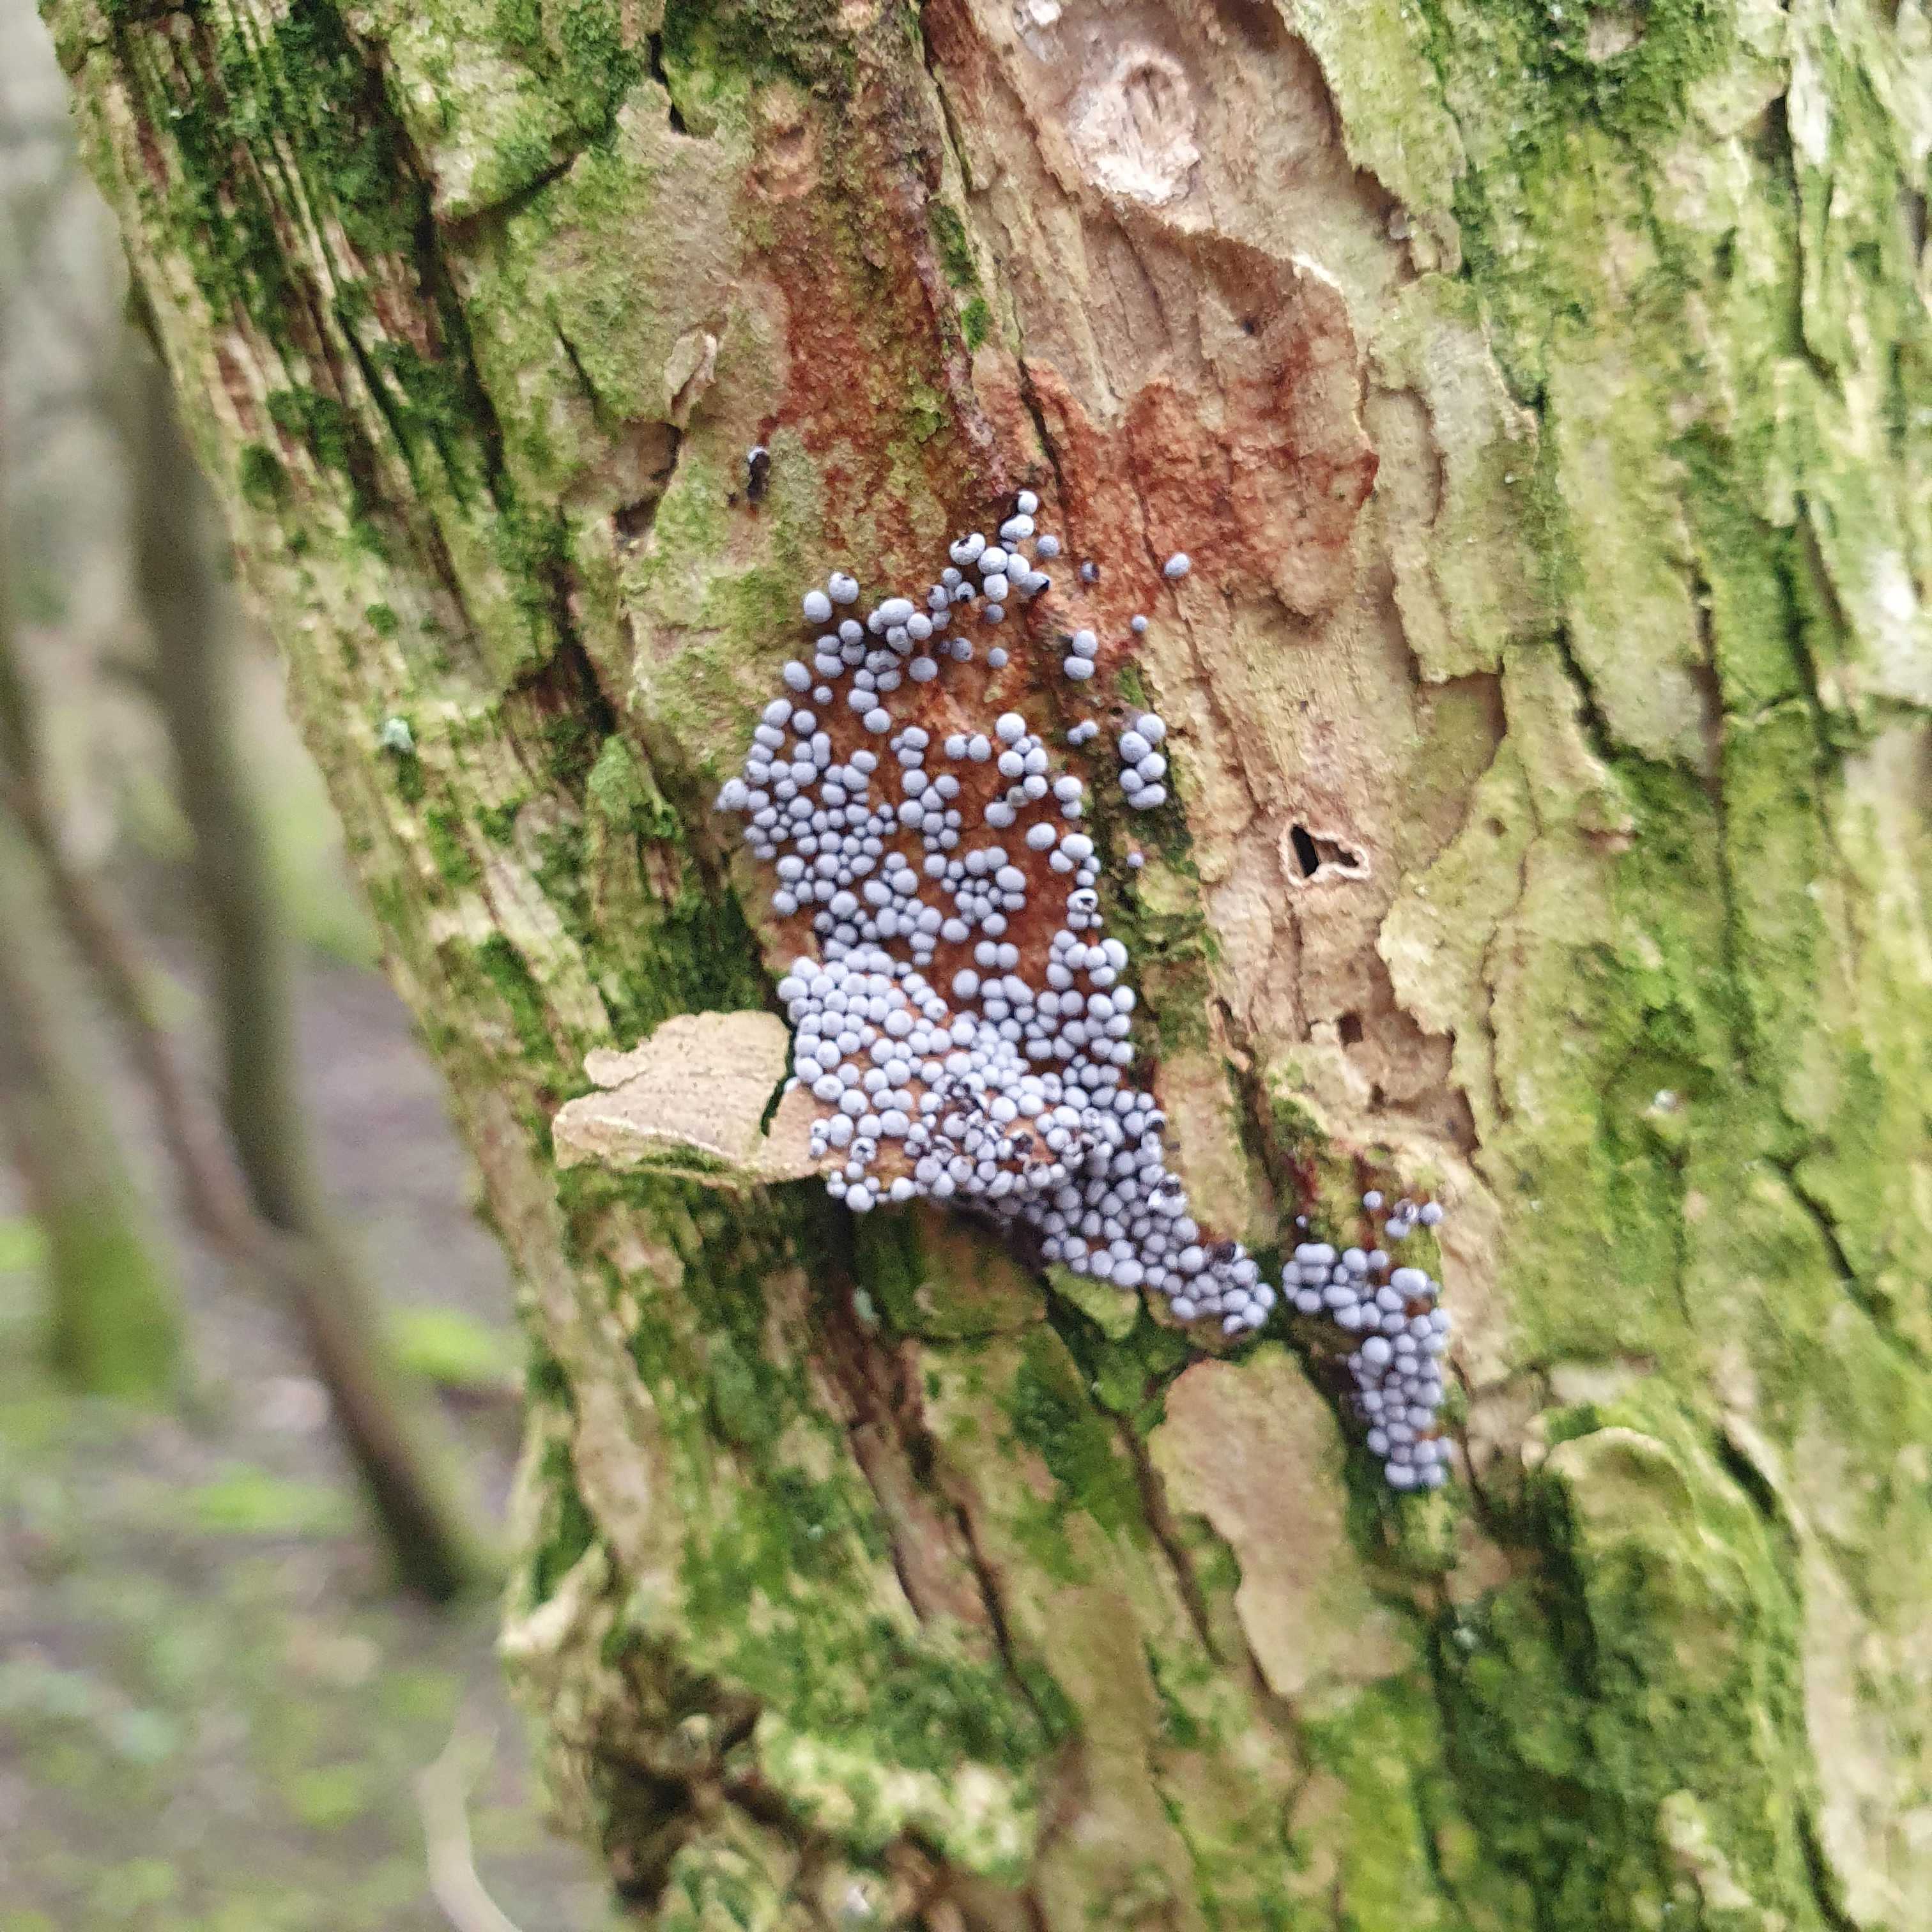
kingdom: Protozoa
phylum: Mycetozoa
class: Myxomycetes
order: Physarales
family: Physaraceae
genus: Badhamia
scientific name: Badhamia panicea
